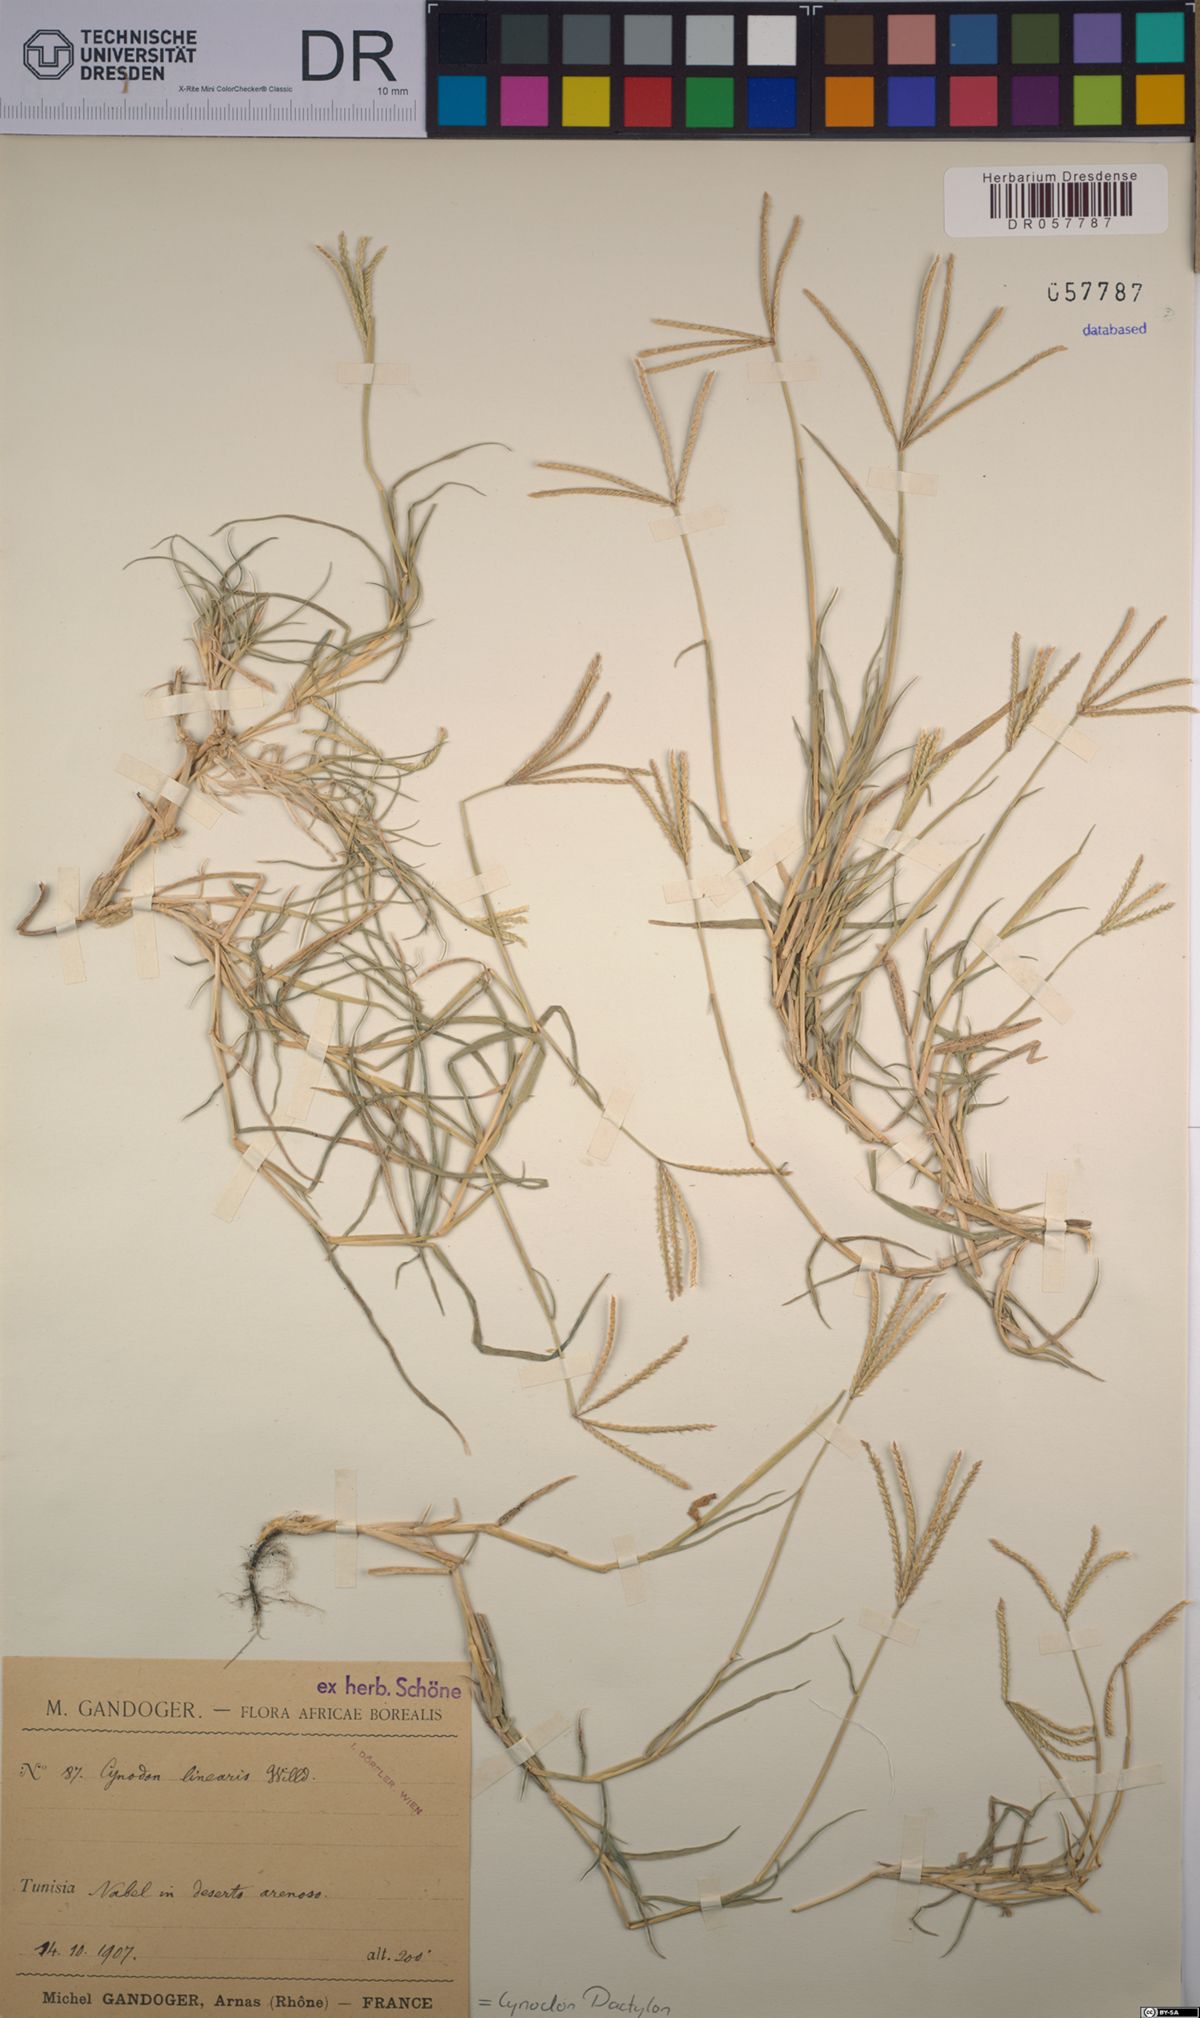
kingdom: Plantae
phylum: Tracheophyta
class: Liliopsida
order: Poales
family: Poaceae
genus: Cynodon
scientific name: Cynodon dactylon
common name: Bermuda grass
